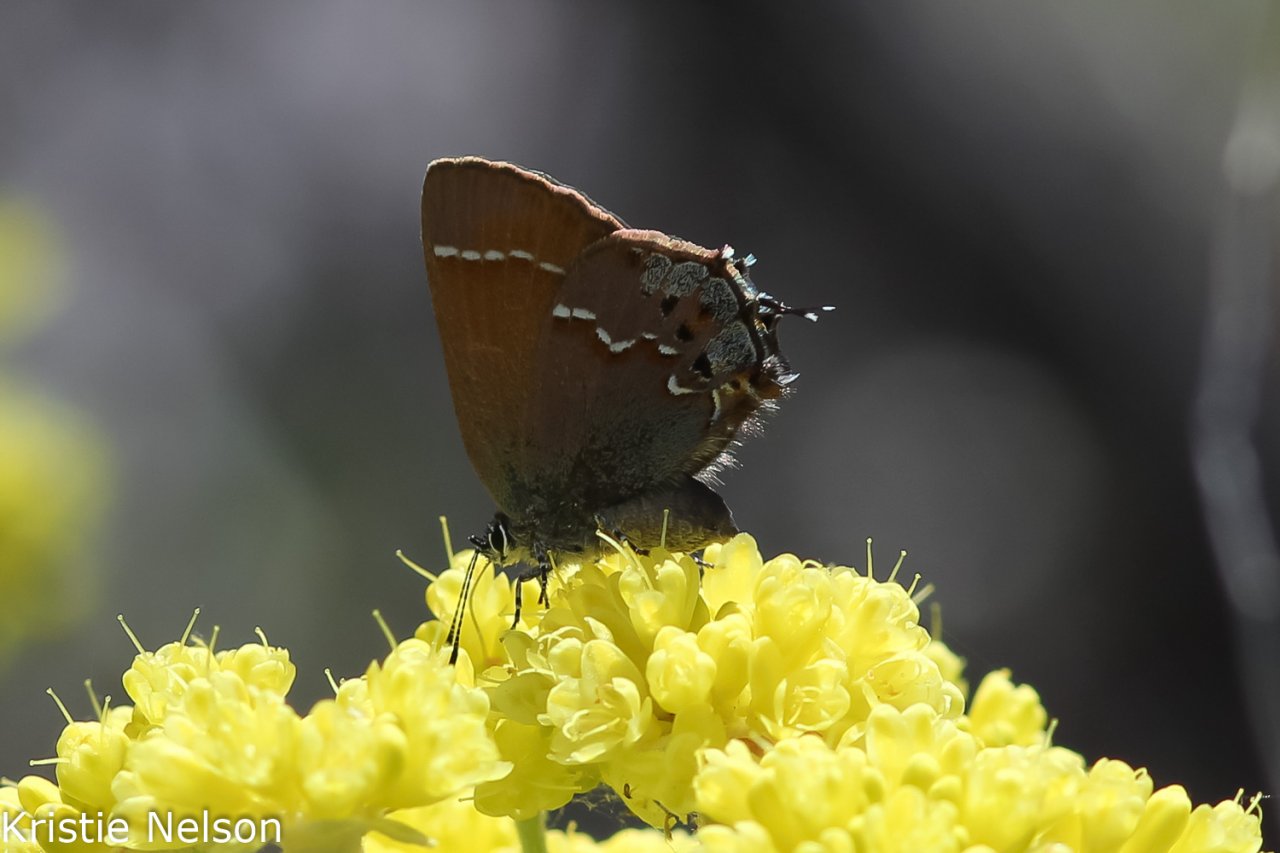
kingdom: Animalia
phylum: Arthropoda
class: Insecta
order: Lepidoptera
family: Lycaenidae
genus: Mitoura
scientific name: Mitoura gryneus
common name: Juniper Hairstreak
